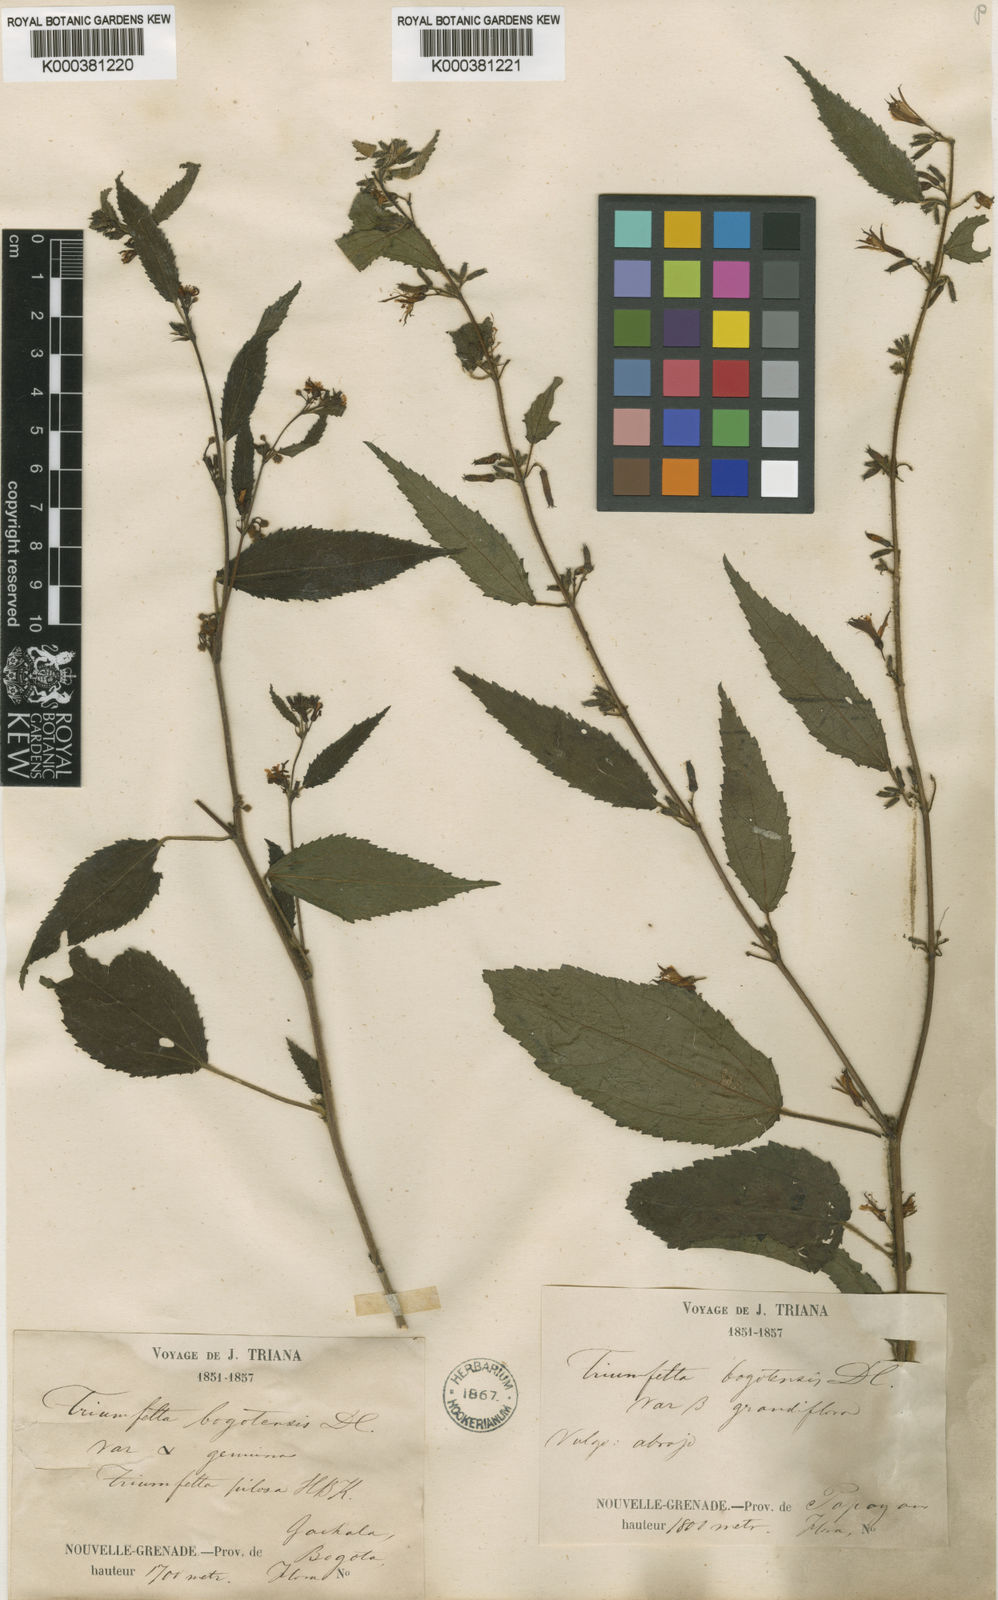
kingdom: Plantae
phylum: Tracheophyta
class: Magnoliopsida
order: Malvales
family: Malvaceae
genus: Triumfetta
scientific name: Triumfetta bogotensis
